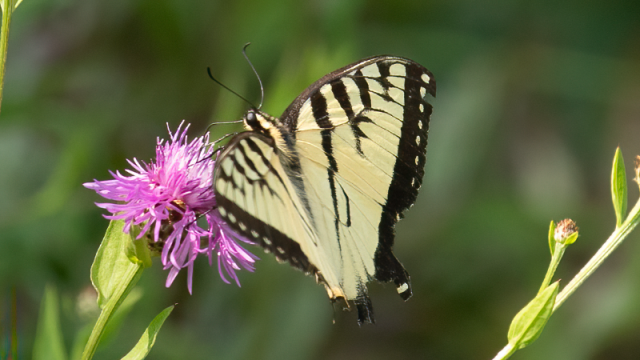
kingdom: Animalia
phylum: Arthropoda
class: Insecta
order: Lepidoptera
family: Papilionidae
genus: Pterourus
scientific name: Pterourus glaucus
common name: Eastern Tiger Swallowtail
